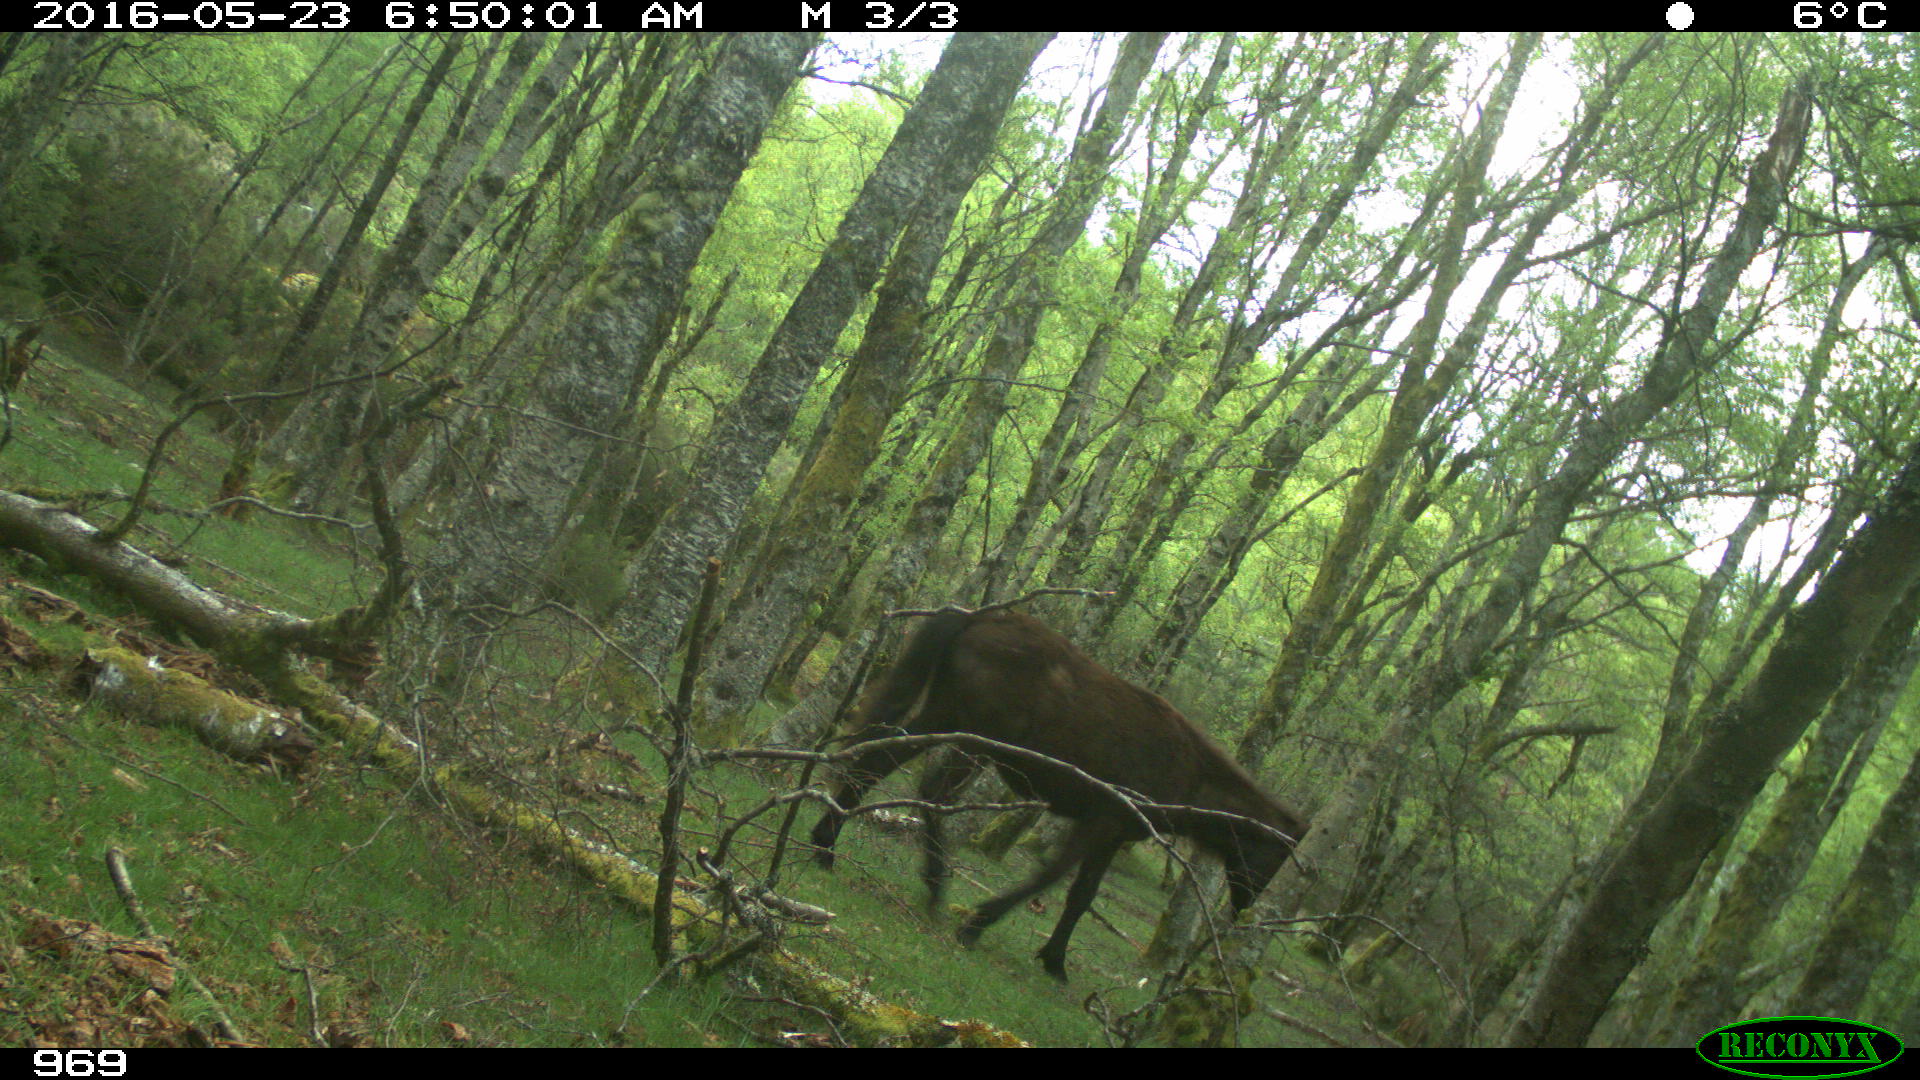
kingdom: Animalia
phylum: Chordata
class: Mammalia
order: Perissodactyla
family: Equidae
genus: Equus
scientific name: Equus caballus
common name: Horse
